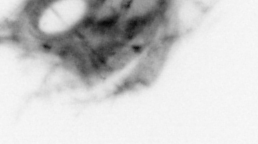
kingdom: Animalia
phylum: Arthropoda
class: Malacostraca
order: Decapoda
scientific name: Decapoda
